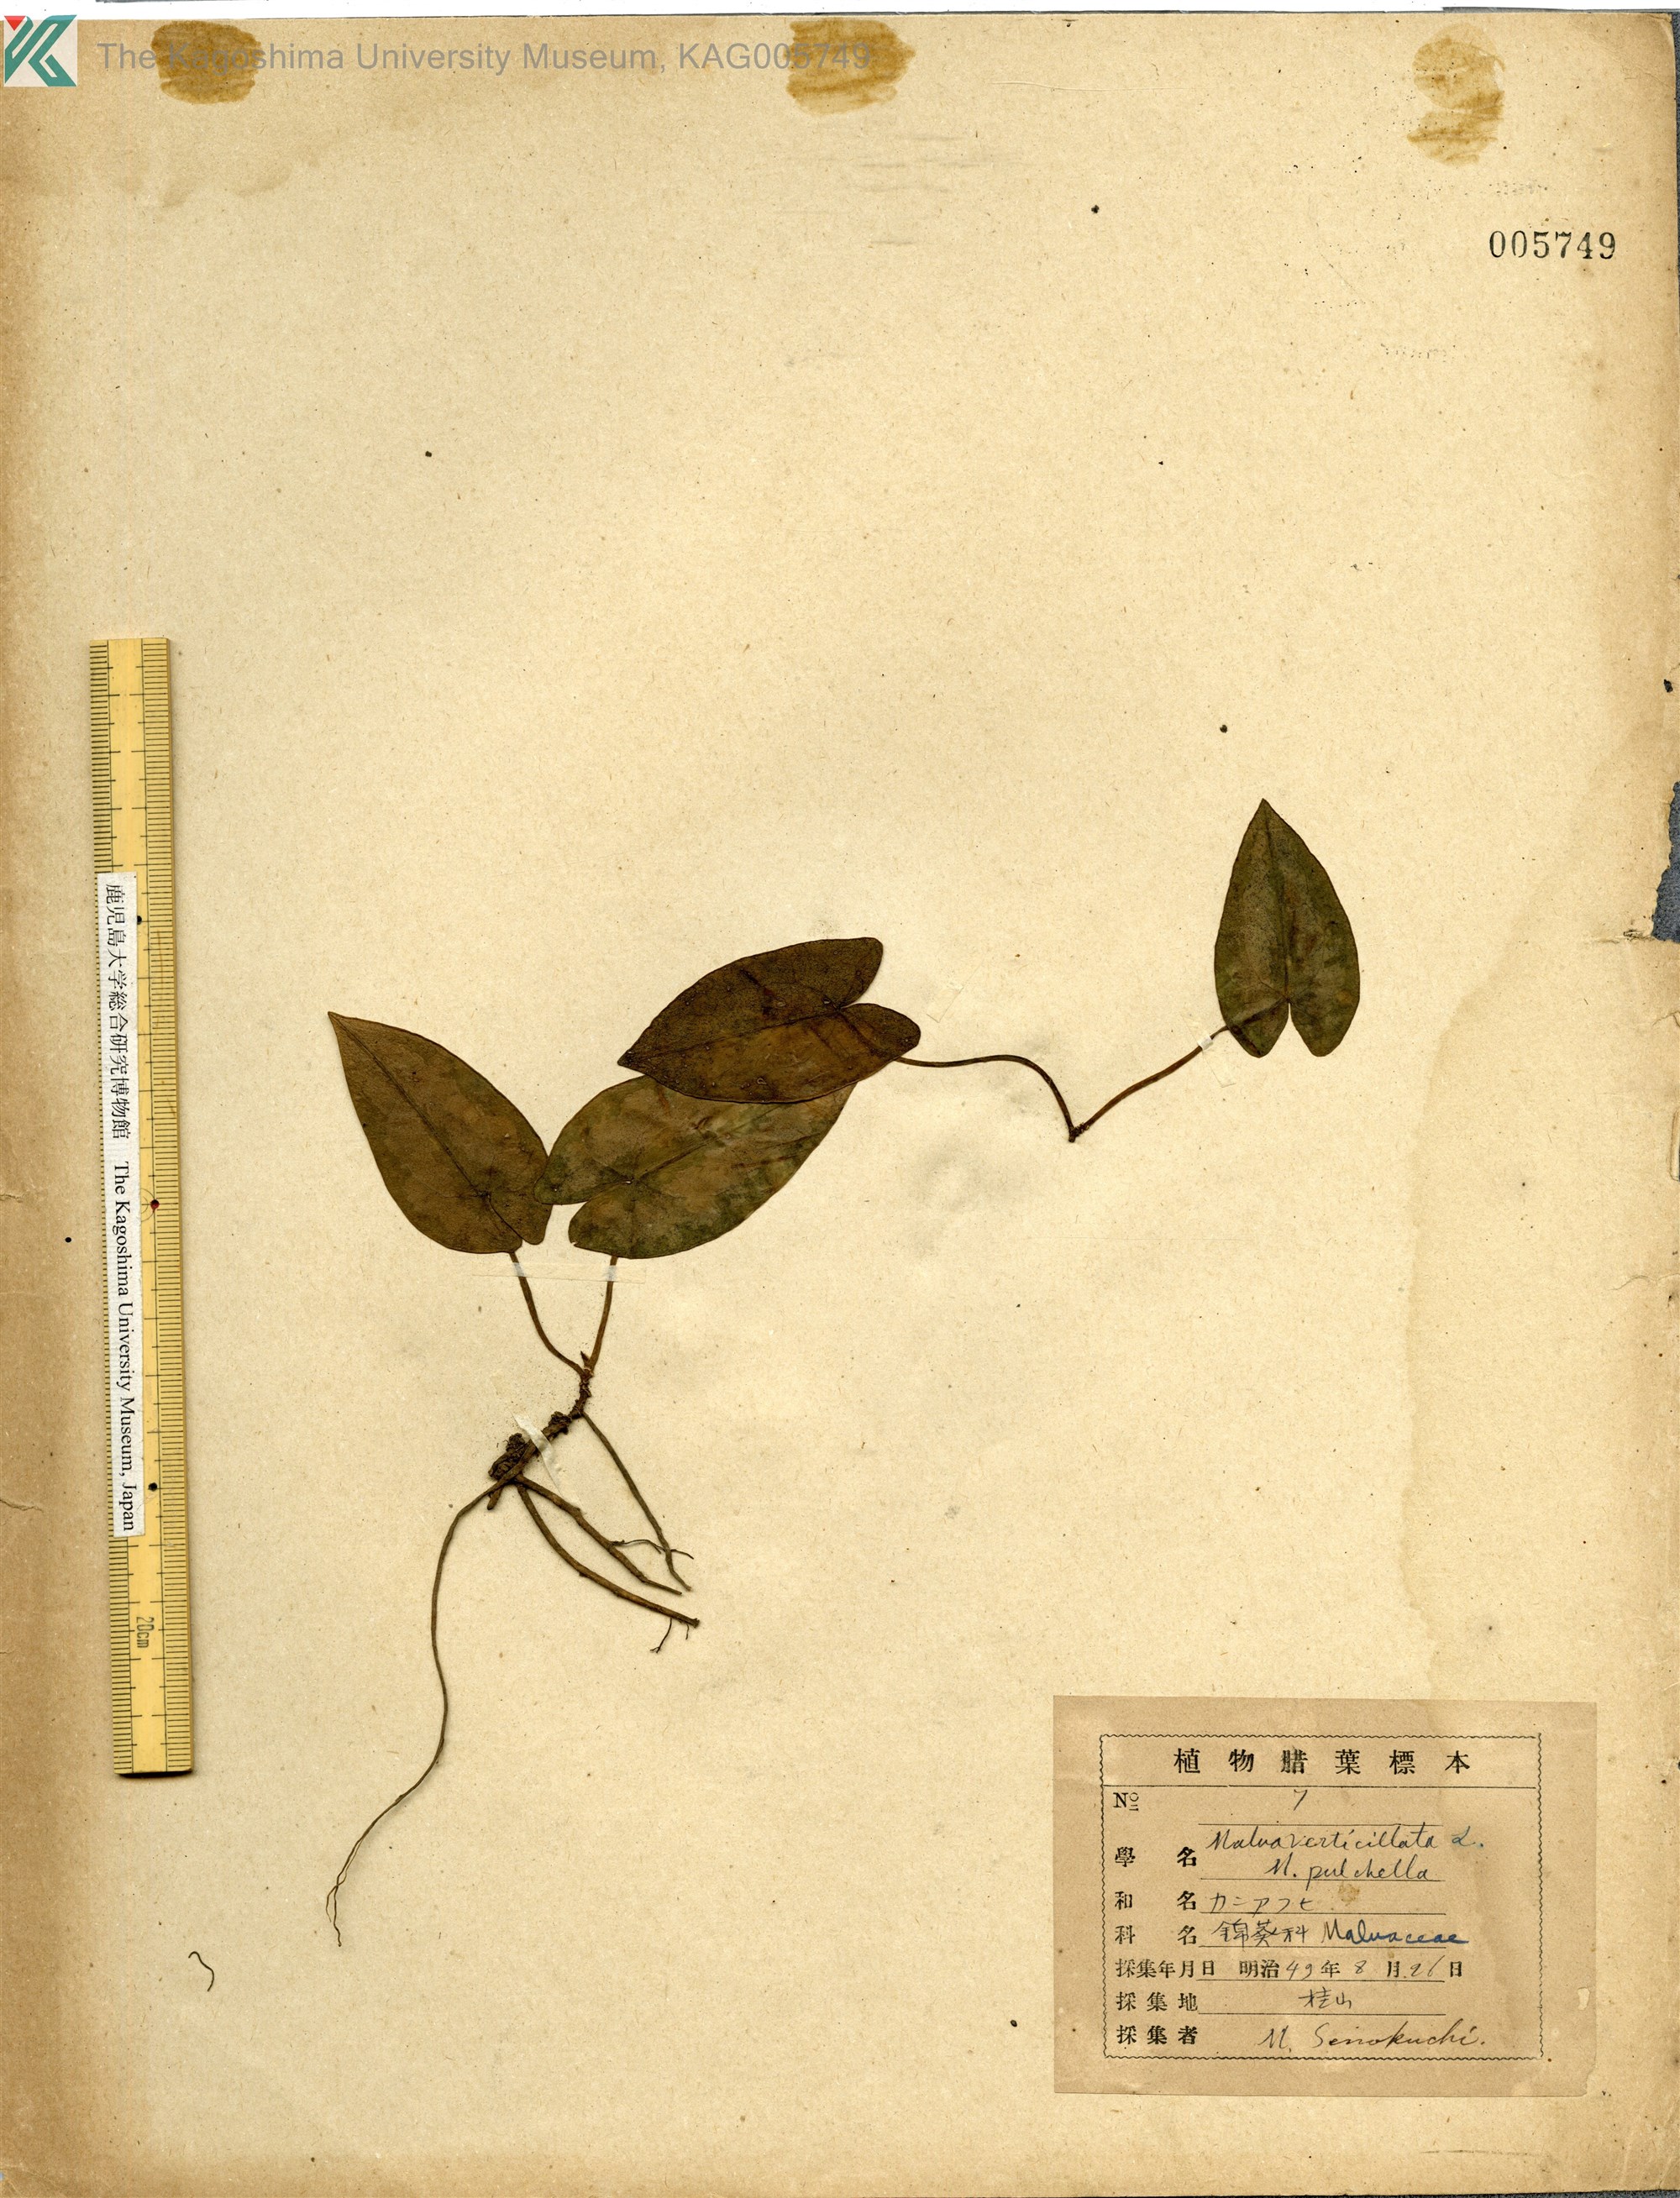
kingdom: Plantae
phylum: Tracheophyta
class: Magnoliopsida
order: Piperales
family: Aristolochiaceae
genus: Asarum
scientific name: Asarum
